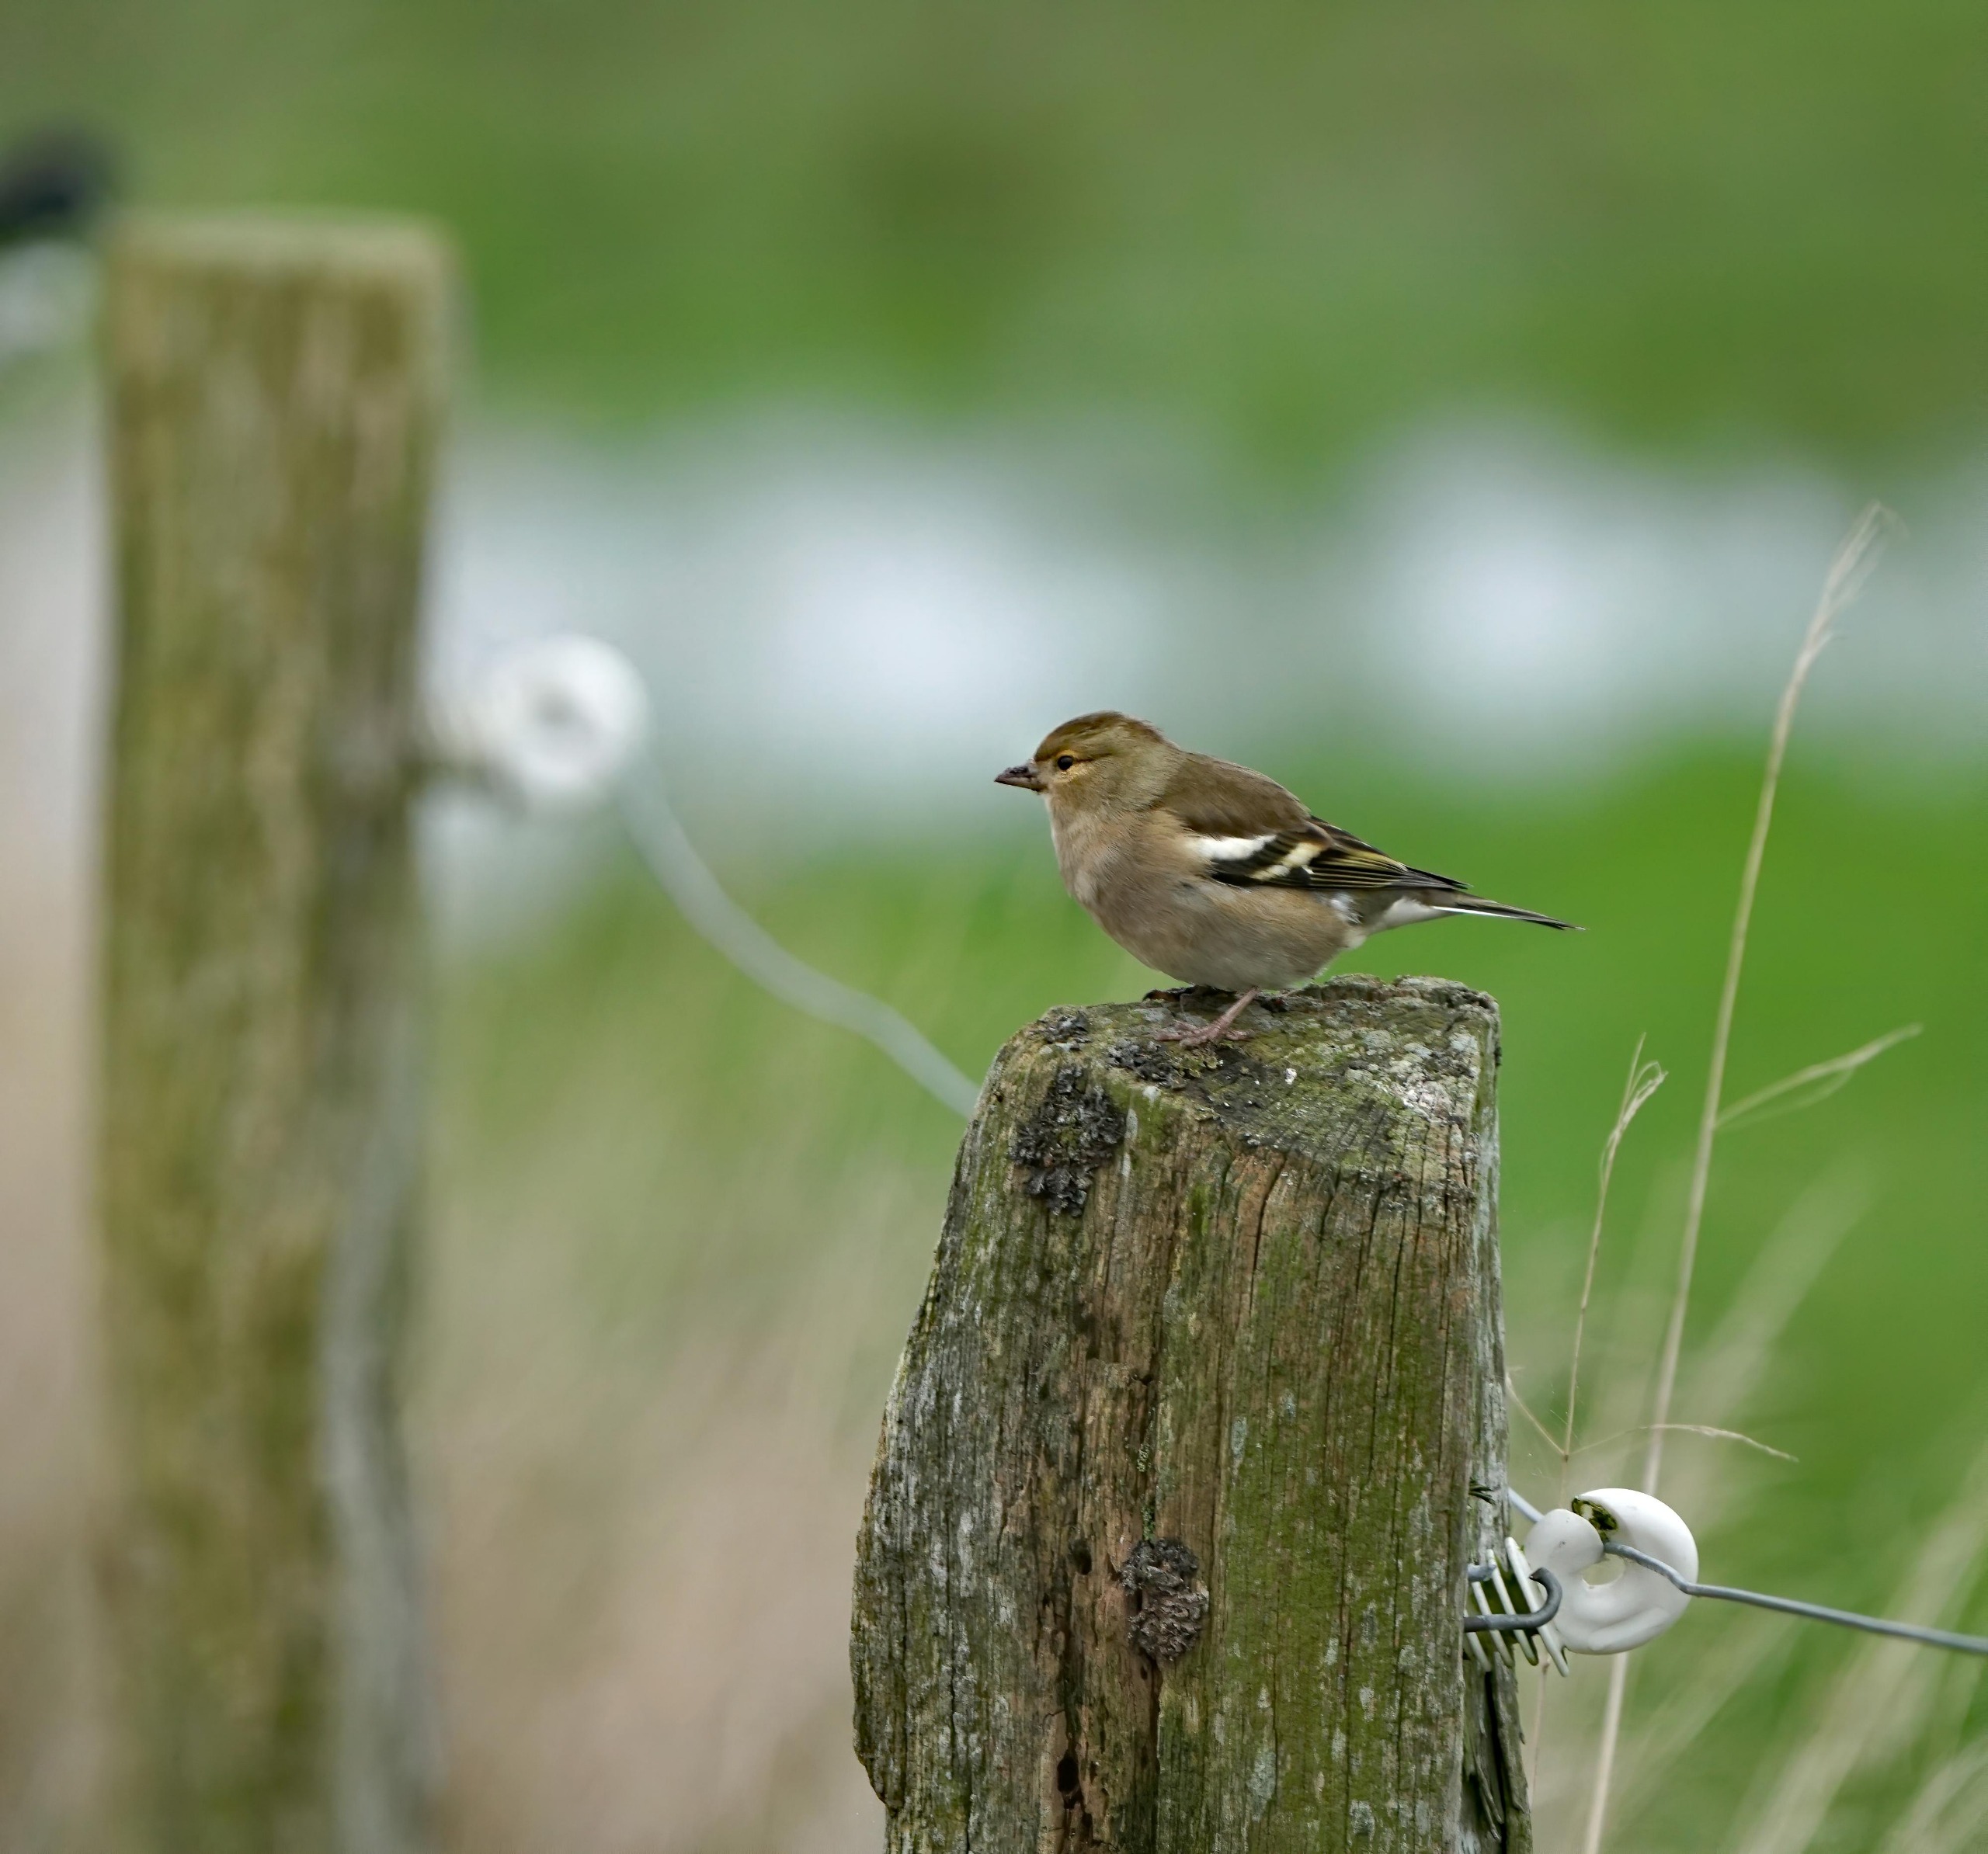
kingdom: Animalia
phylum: Chordata
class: Aves
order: Passeriformes
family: Fringillidae
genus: Fringilla
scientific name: Fringilla coelebs
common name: Bogfinke
